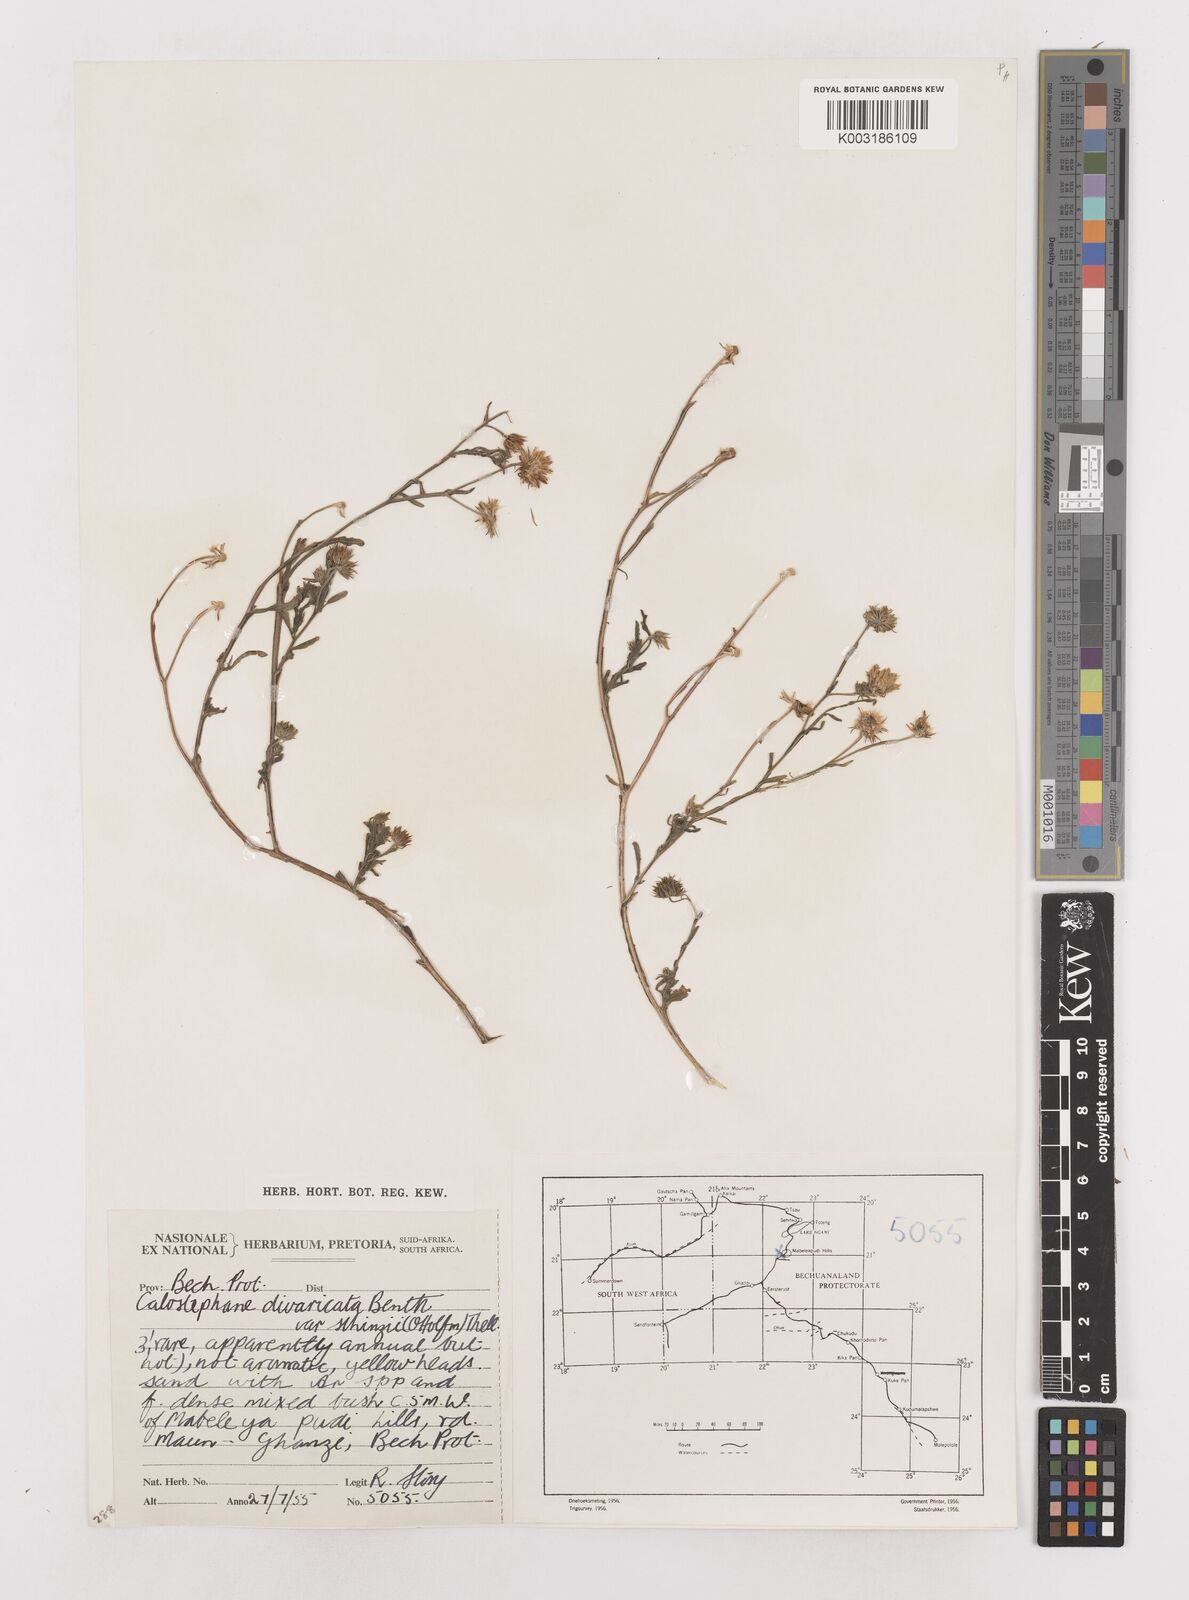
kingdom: Plantae
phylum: Tracheophyta
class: Magnoliopsida
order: Asterales
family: Asteraceae
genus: Calostephane
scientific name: Calostephane divaricata
